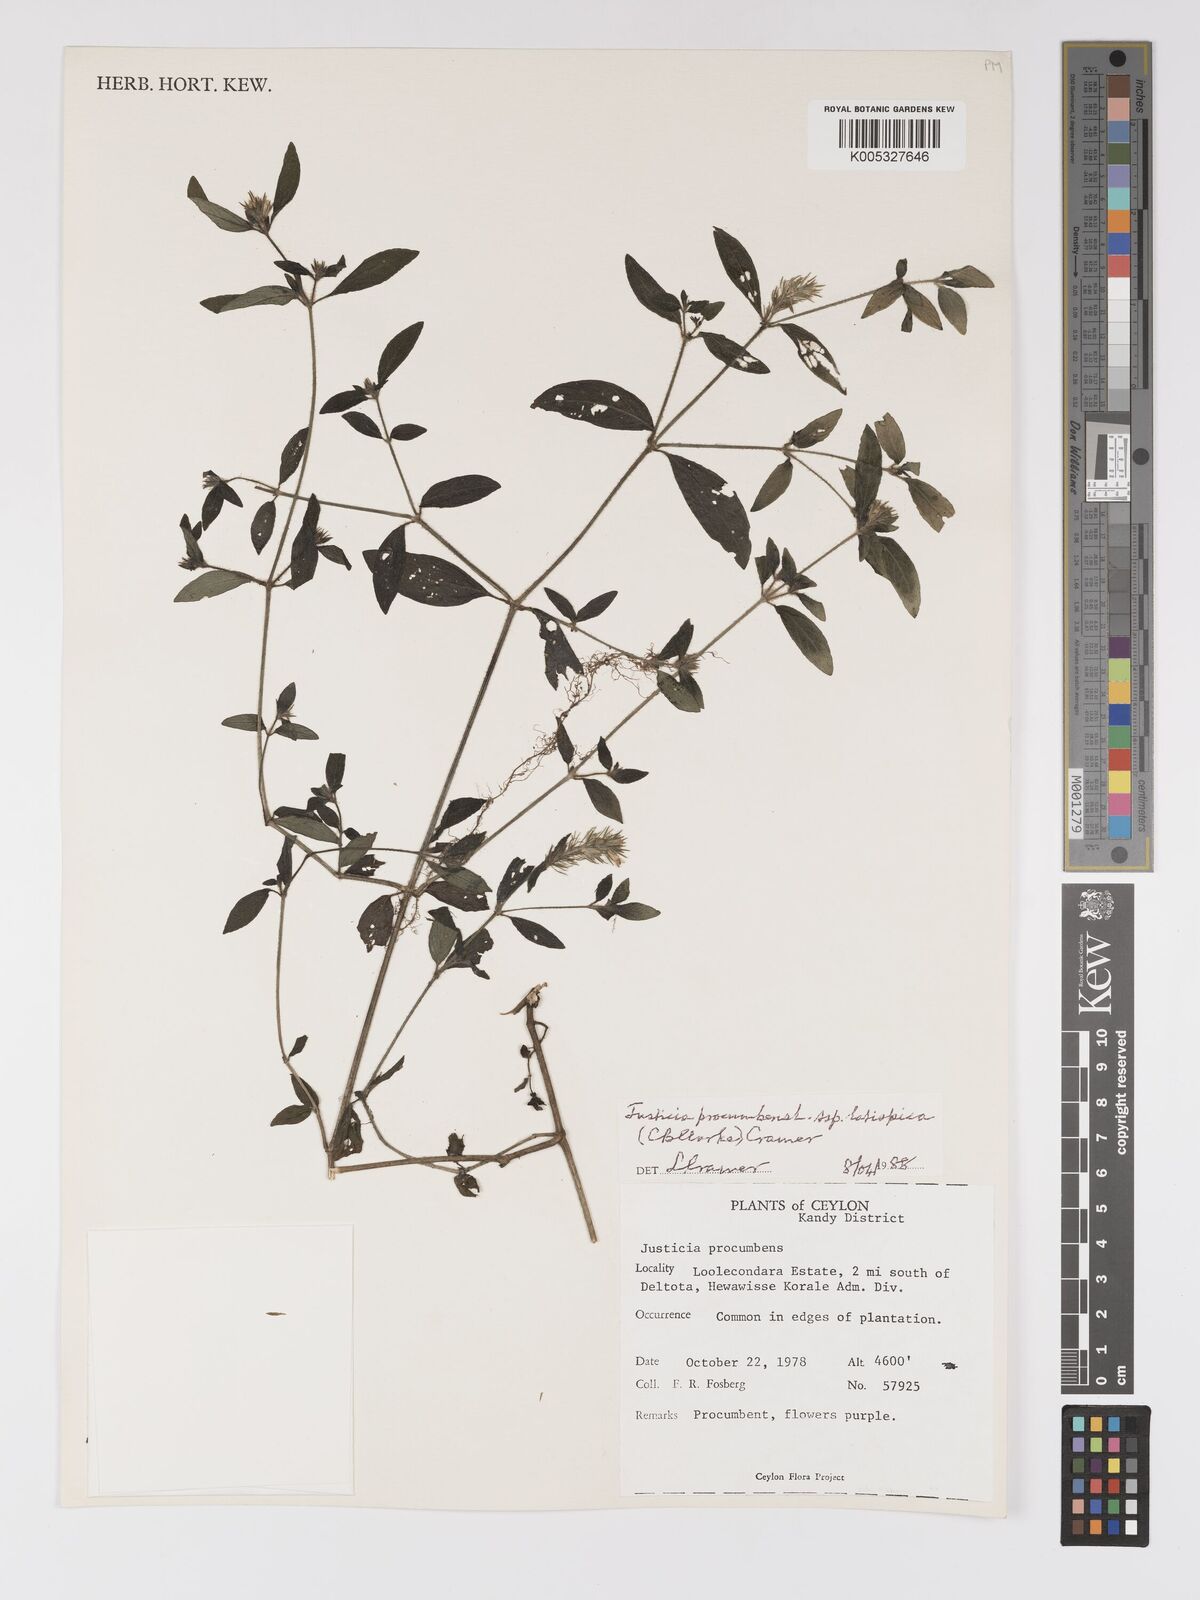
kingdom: Plantae
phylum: Tracheophyta
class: Magnoliopsida
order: Lamiales
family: Acanthaceae
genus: Rostellularia
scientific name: Rostellularia latispica
